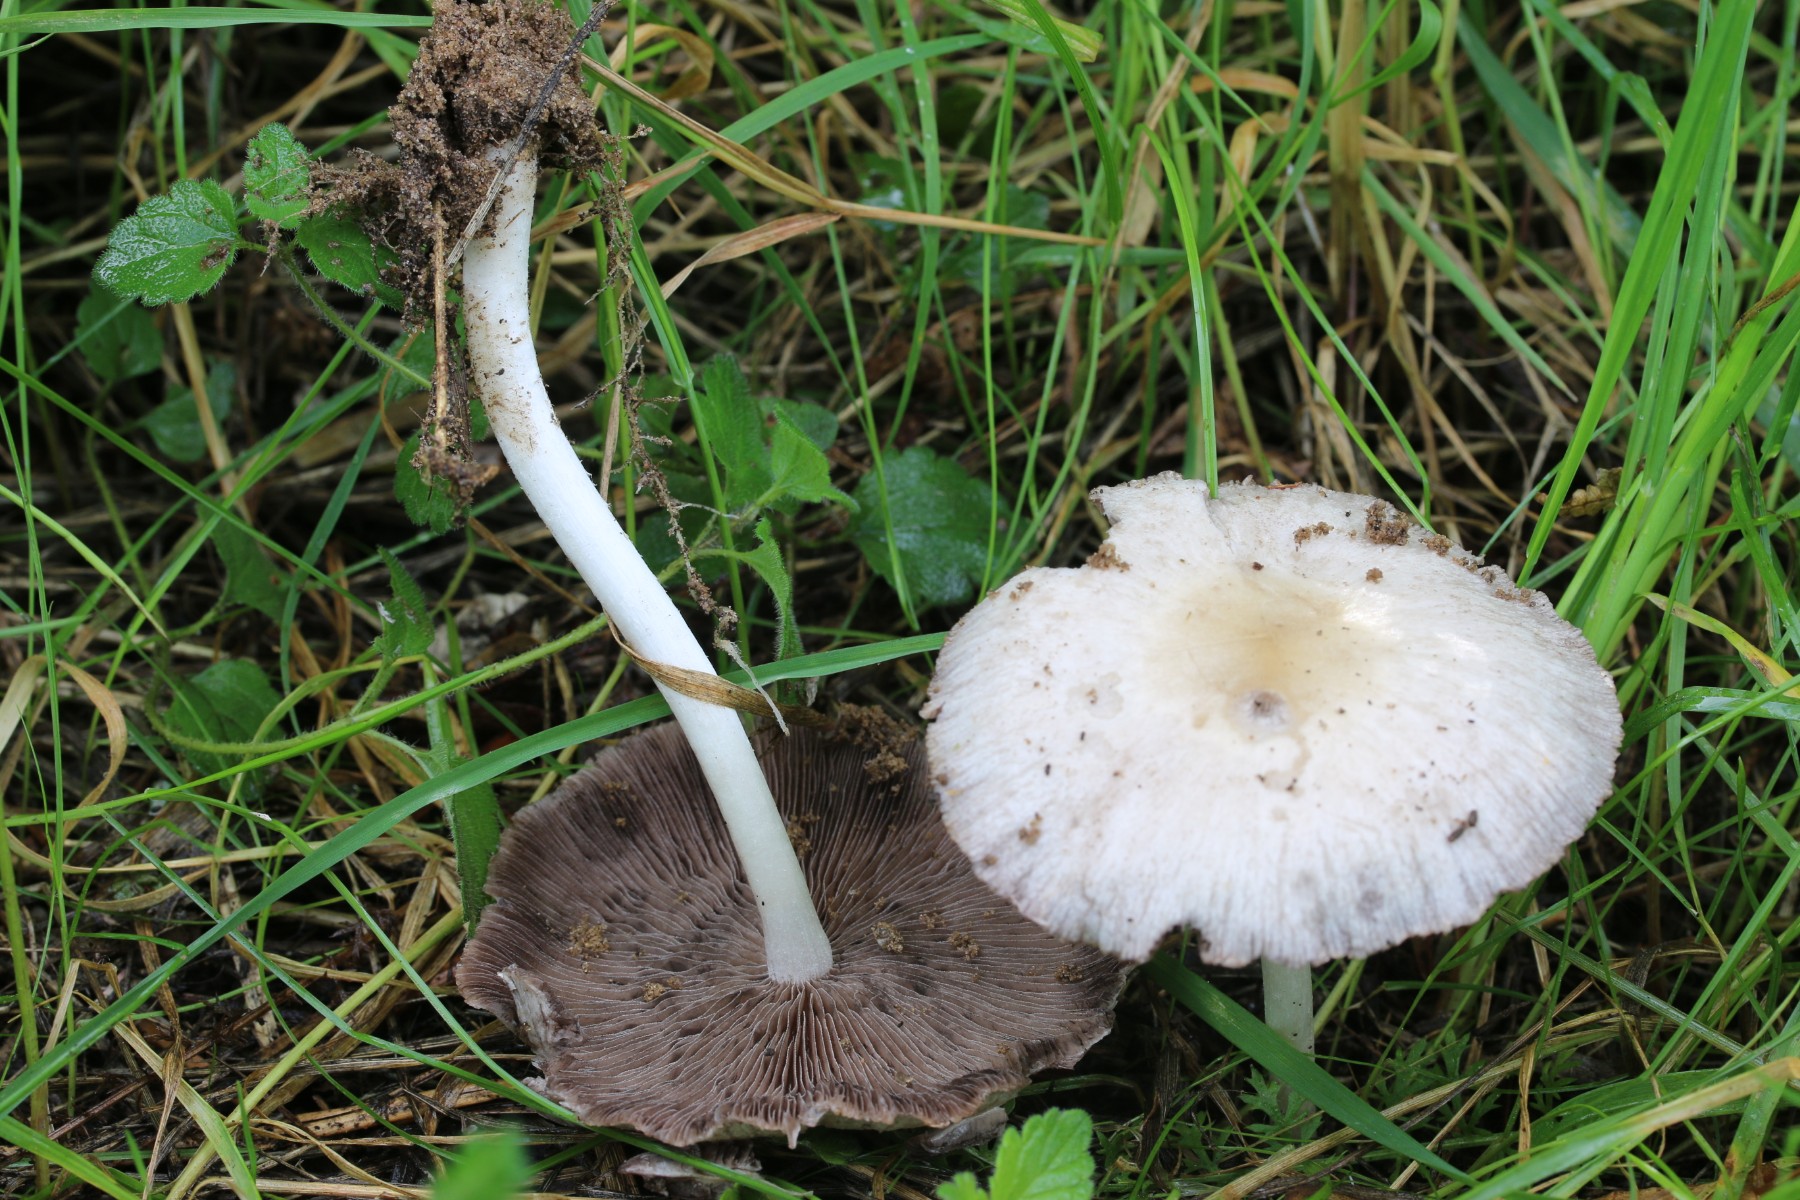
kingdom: Fungi
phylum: Basidiomycota
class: Agaricomycetes
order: Agaricales
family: Psathyrellaceae
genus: Candolleomyces
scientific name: Candolleomyces candolleanus
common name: Candolles mørkhat
